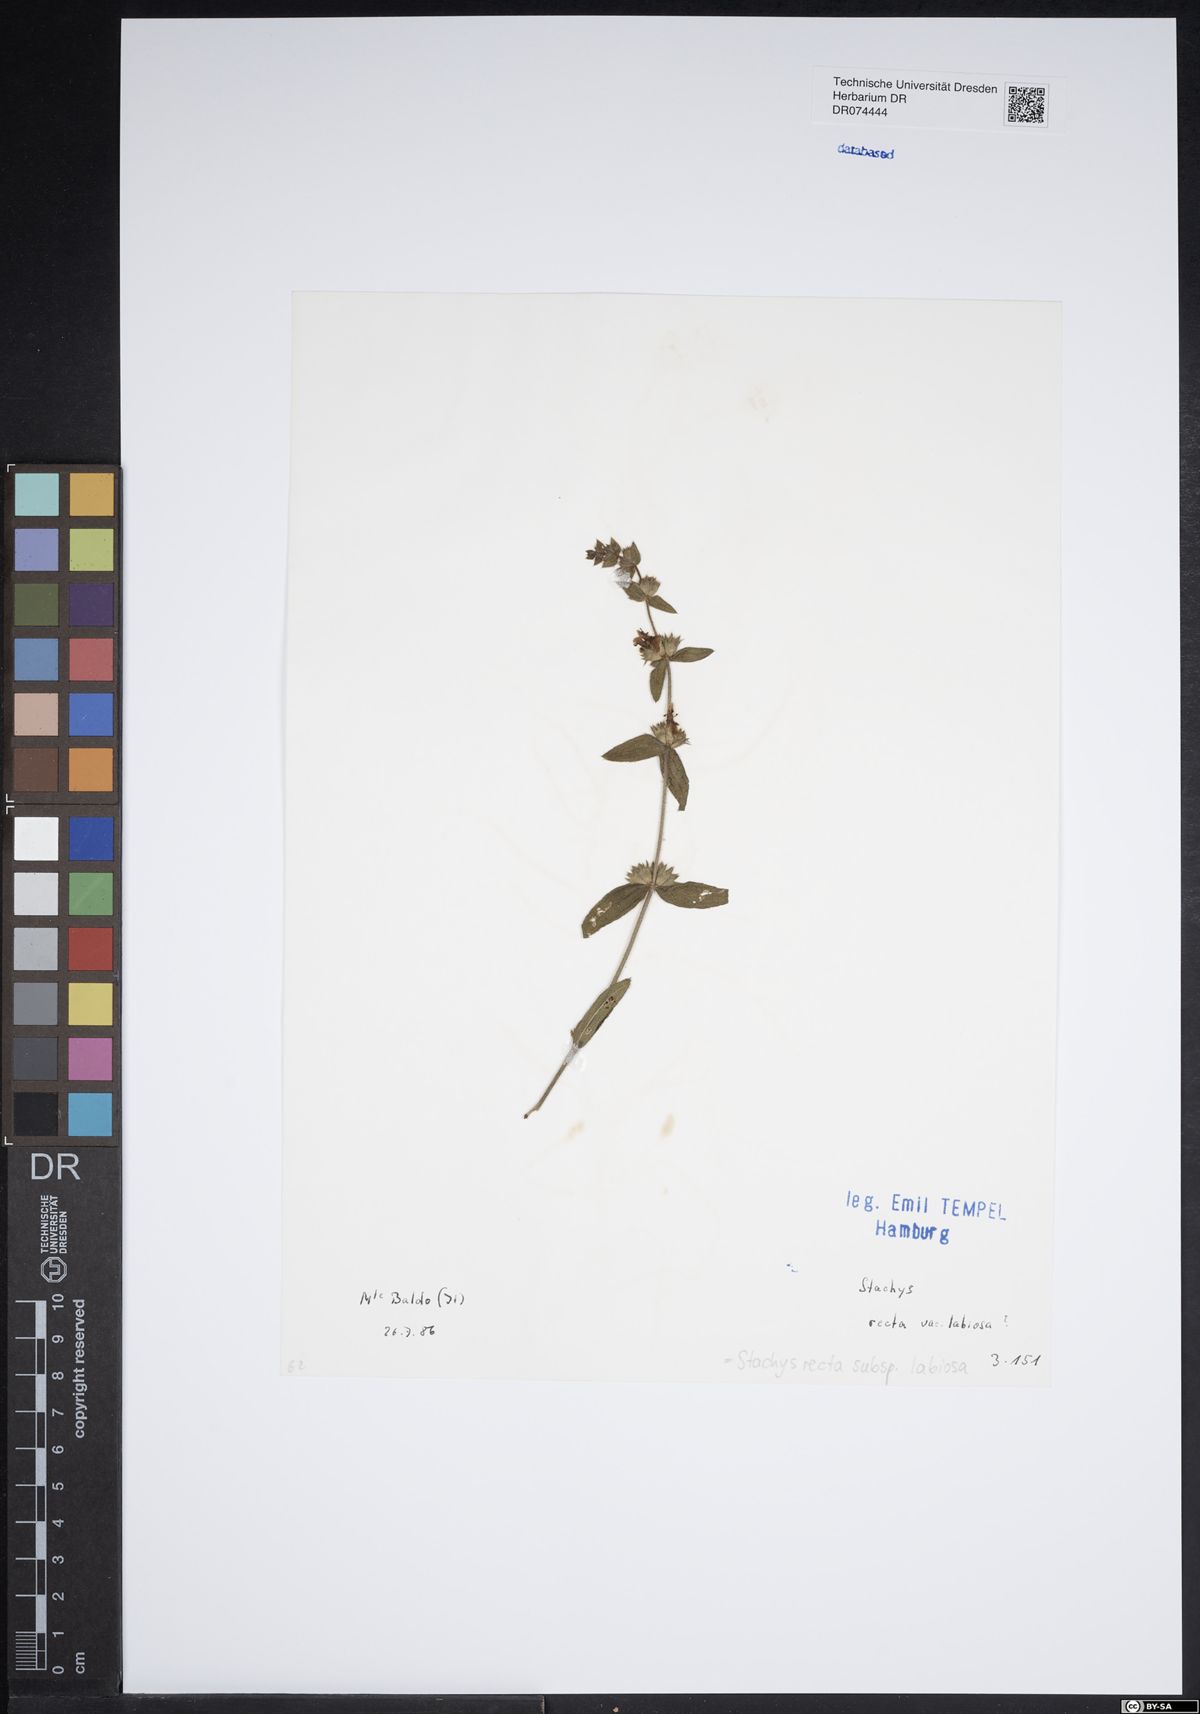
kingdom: Plantae
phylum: Tracheophyta
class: Magnoliopsida
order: Lamiales
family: Lamiaceae
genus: Stachys
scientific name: Stachys recta
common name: Perennial yellow-woundwort
